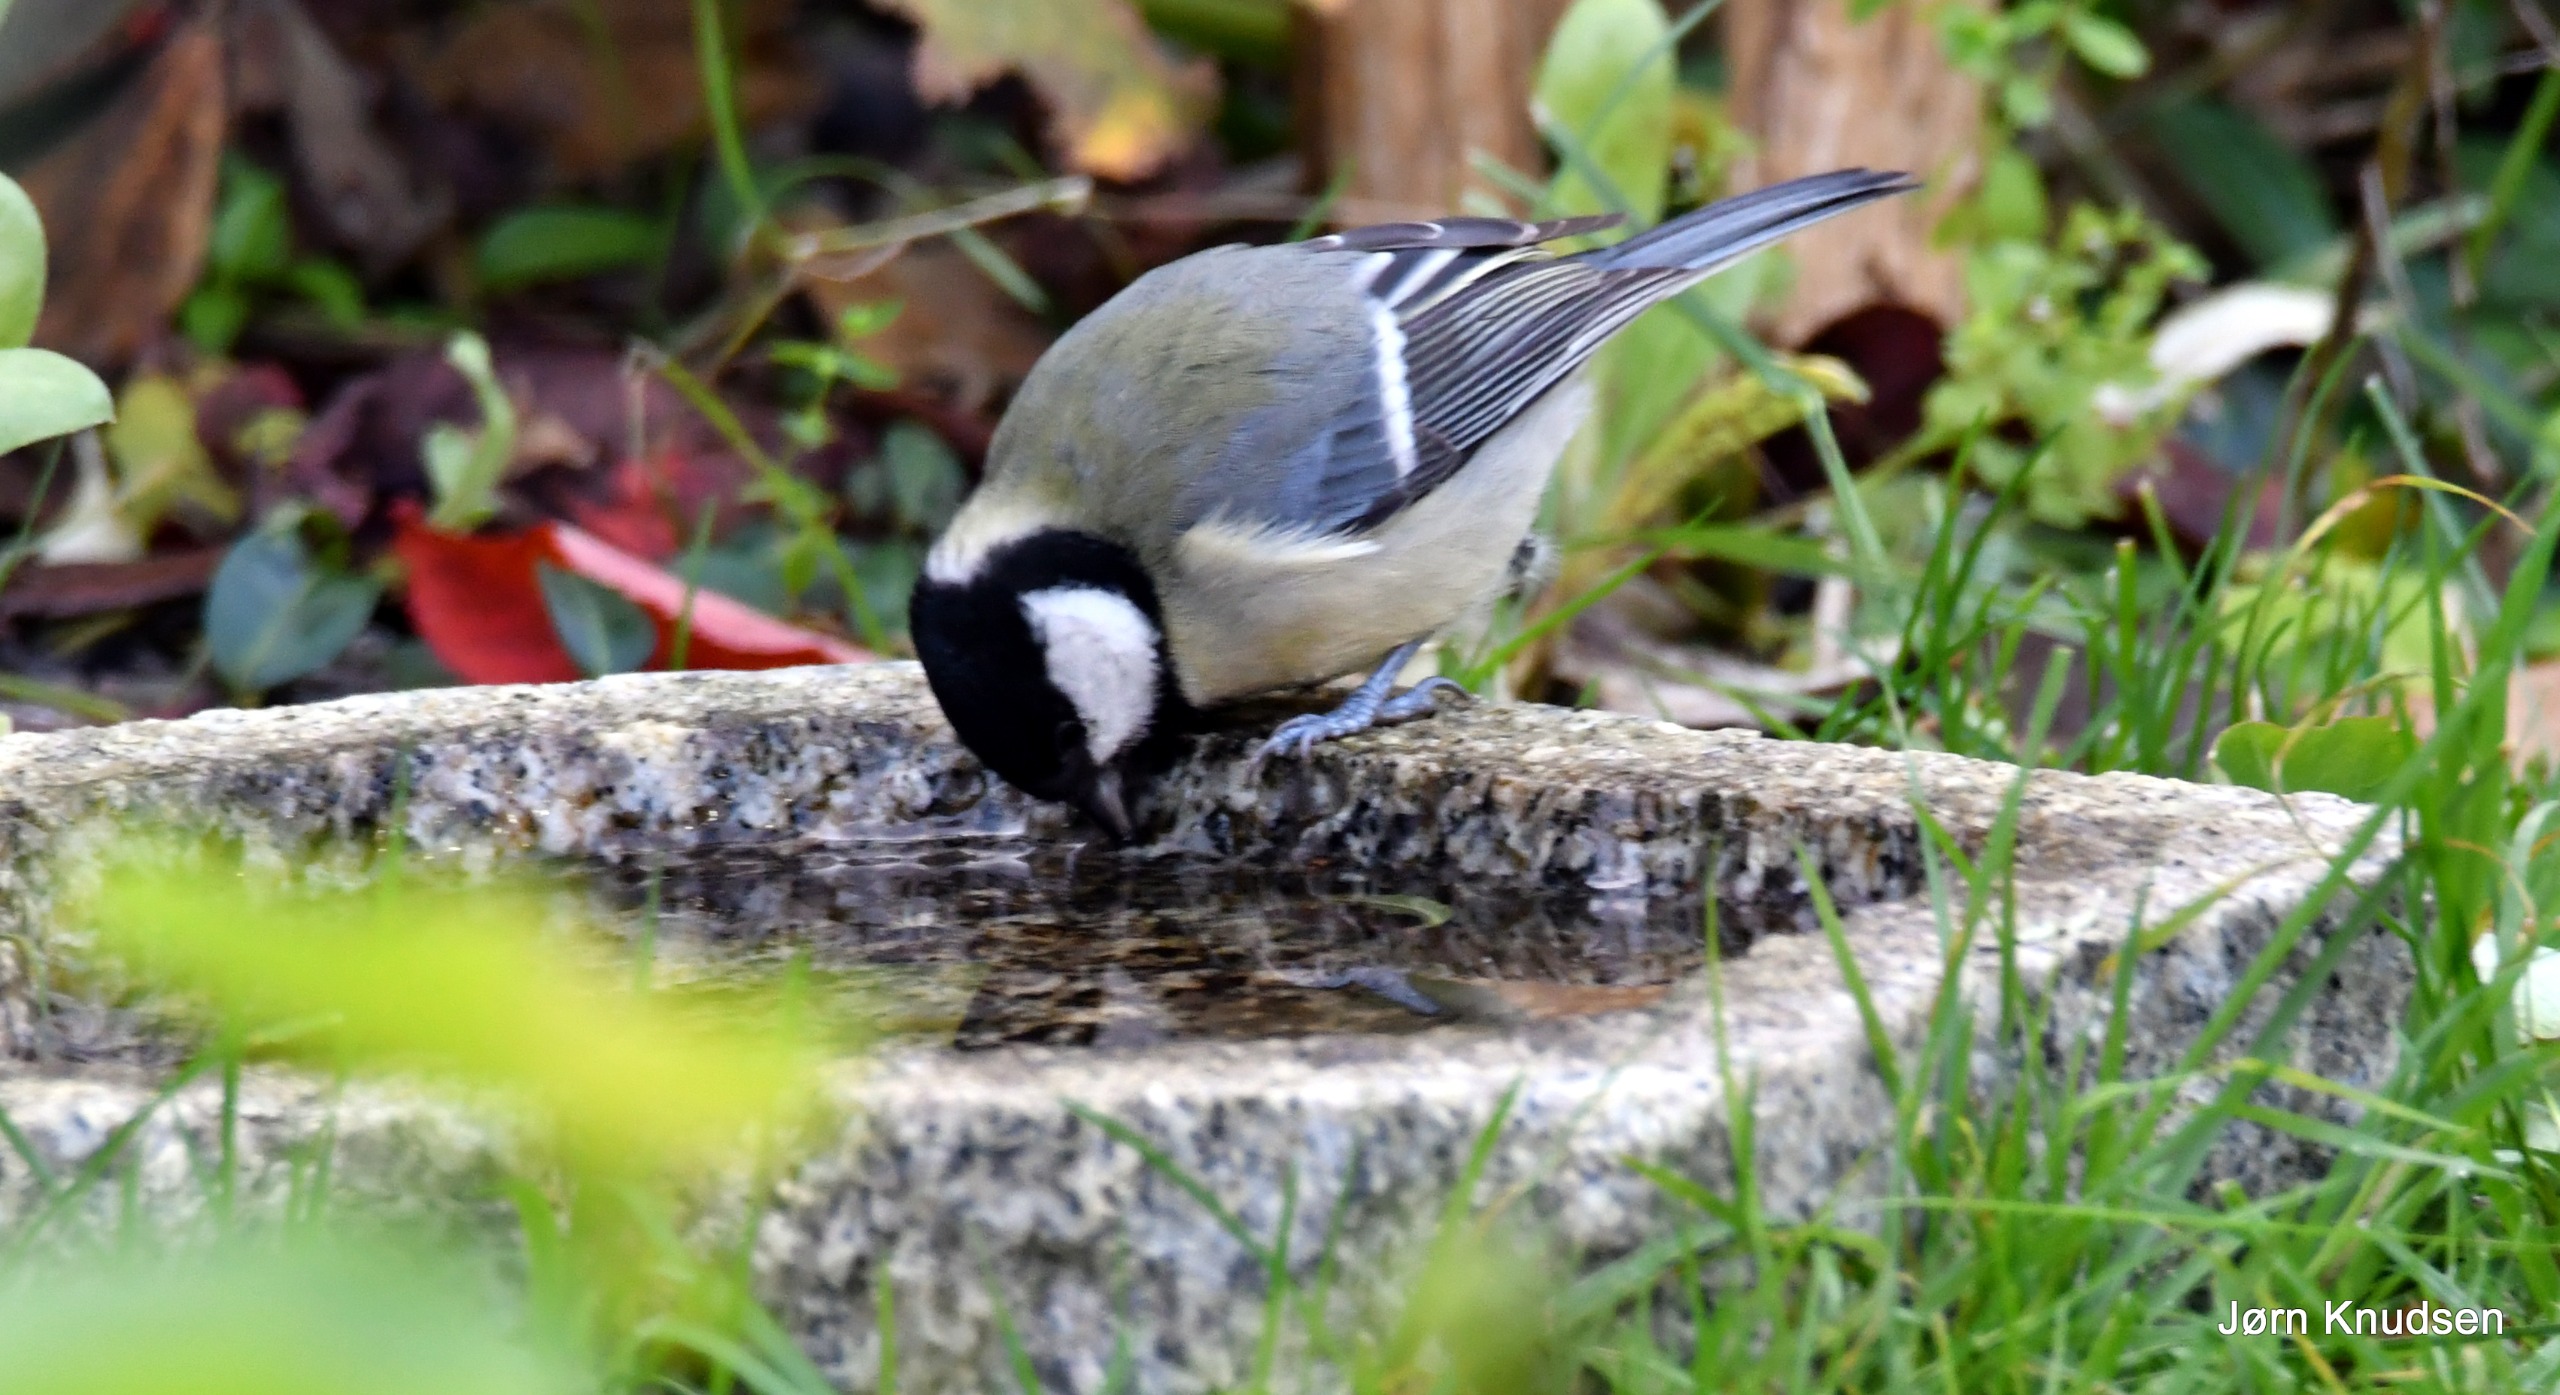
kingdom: Animalia
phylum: Chordata
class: Aves
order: Passeriformes
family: Paridae
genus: Parus
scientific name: Parus major
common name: Musvit
